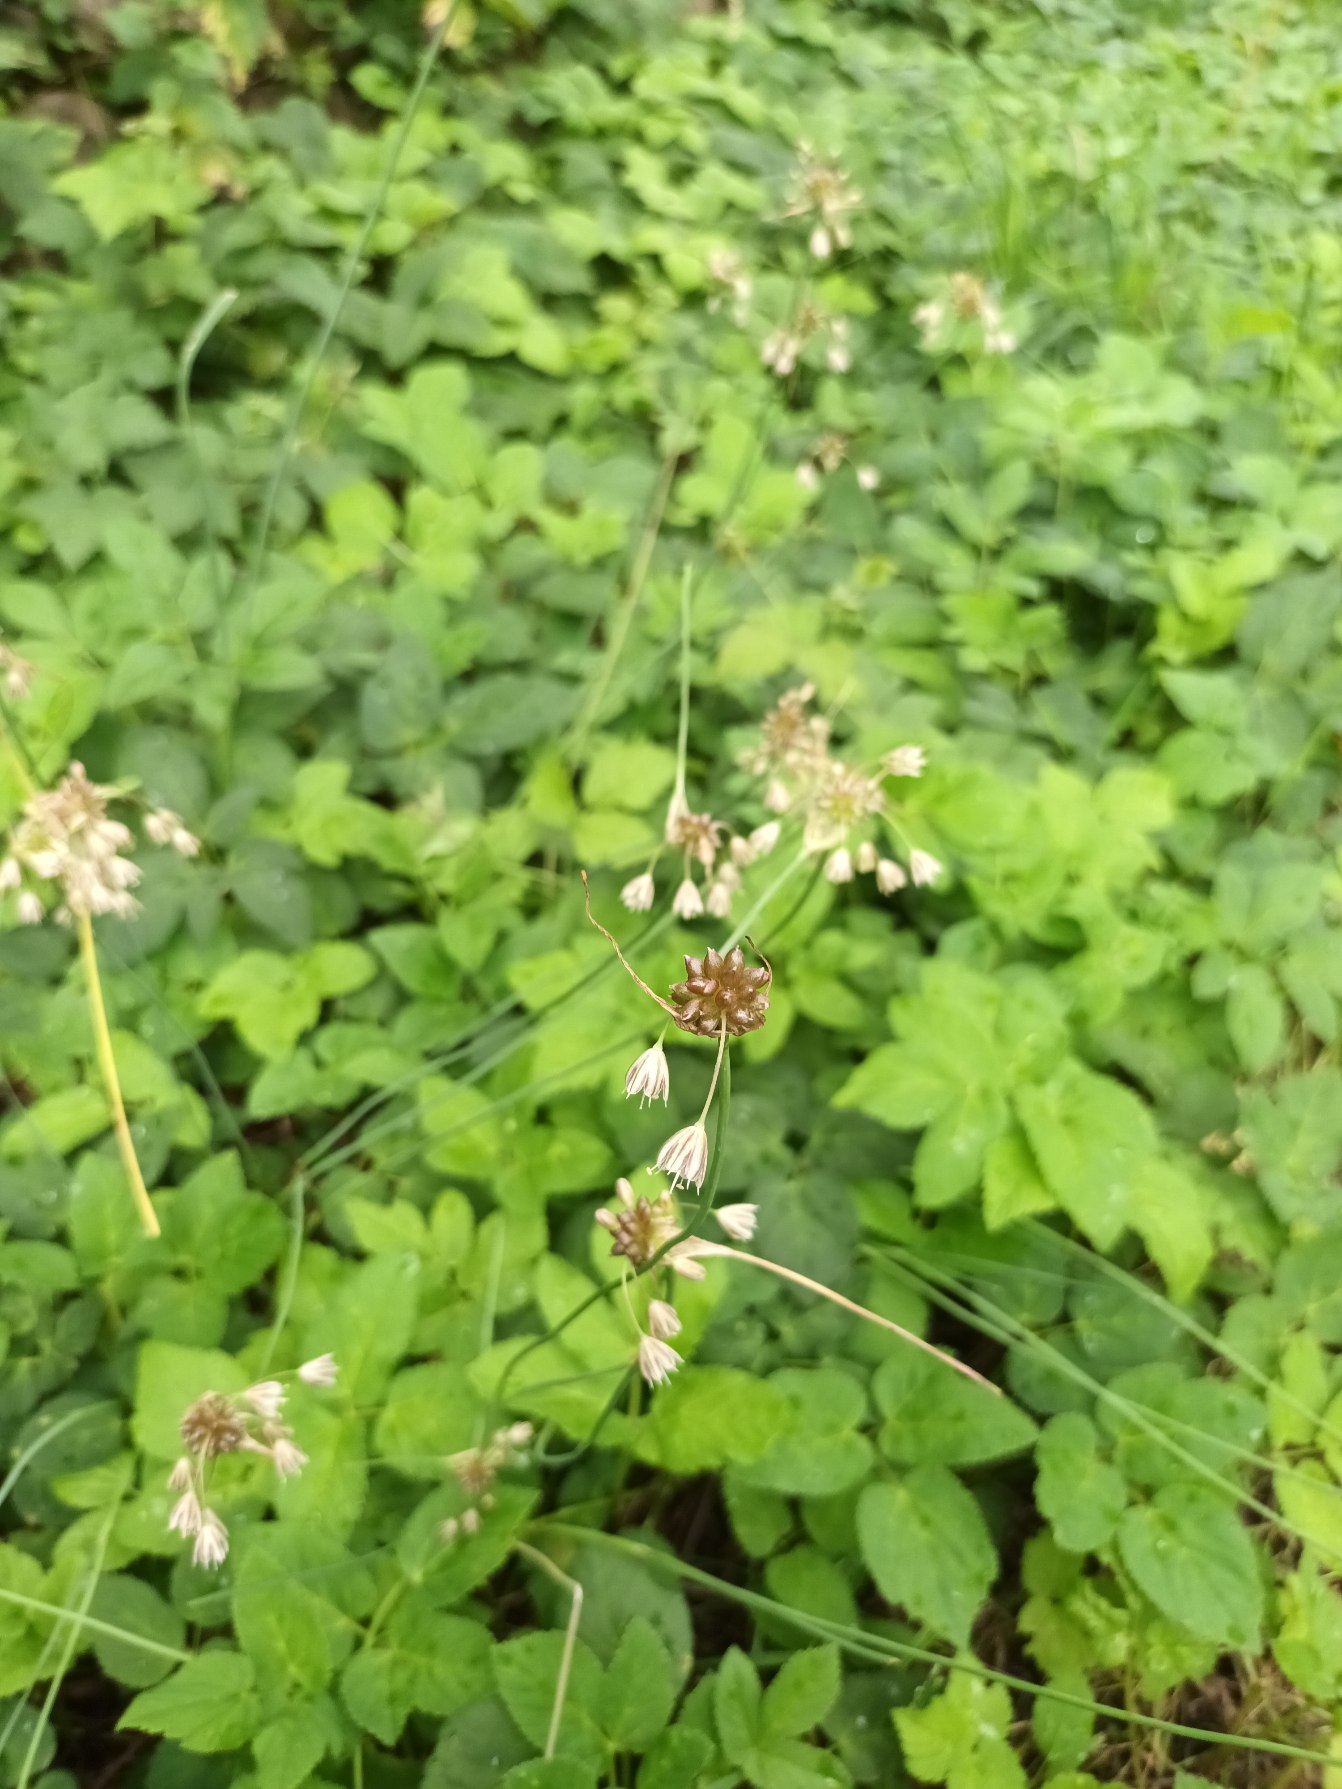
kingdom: Plantae
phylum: Tracheophyta
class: Liliopsida
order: Asparagales
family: Amaryllidaceae
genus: Allium
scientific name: Allium oleraceum
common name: Vild løg
